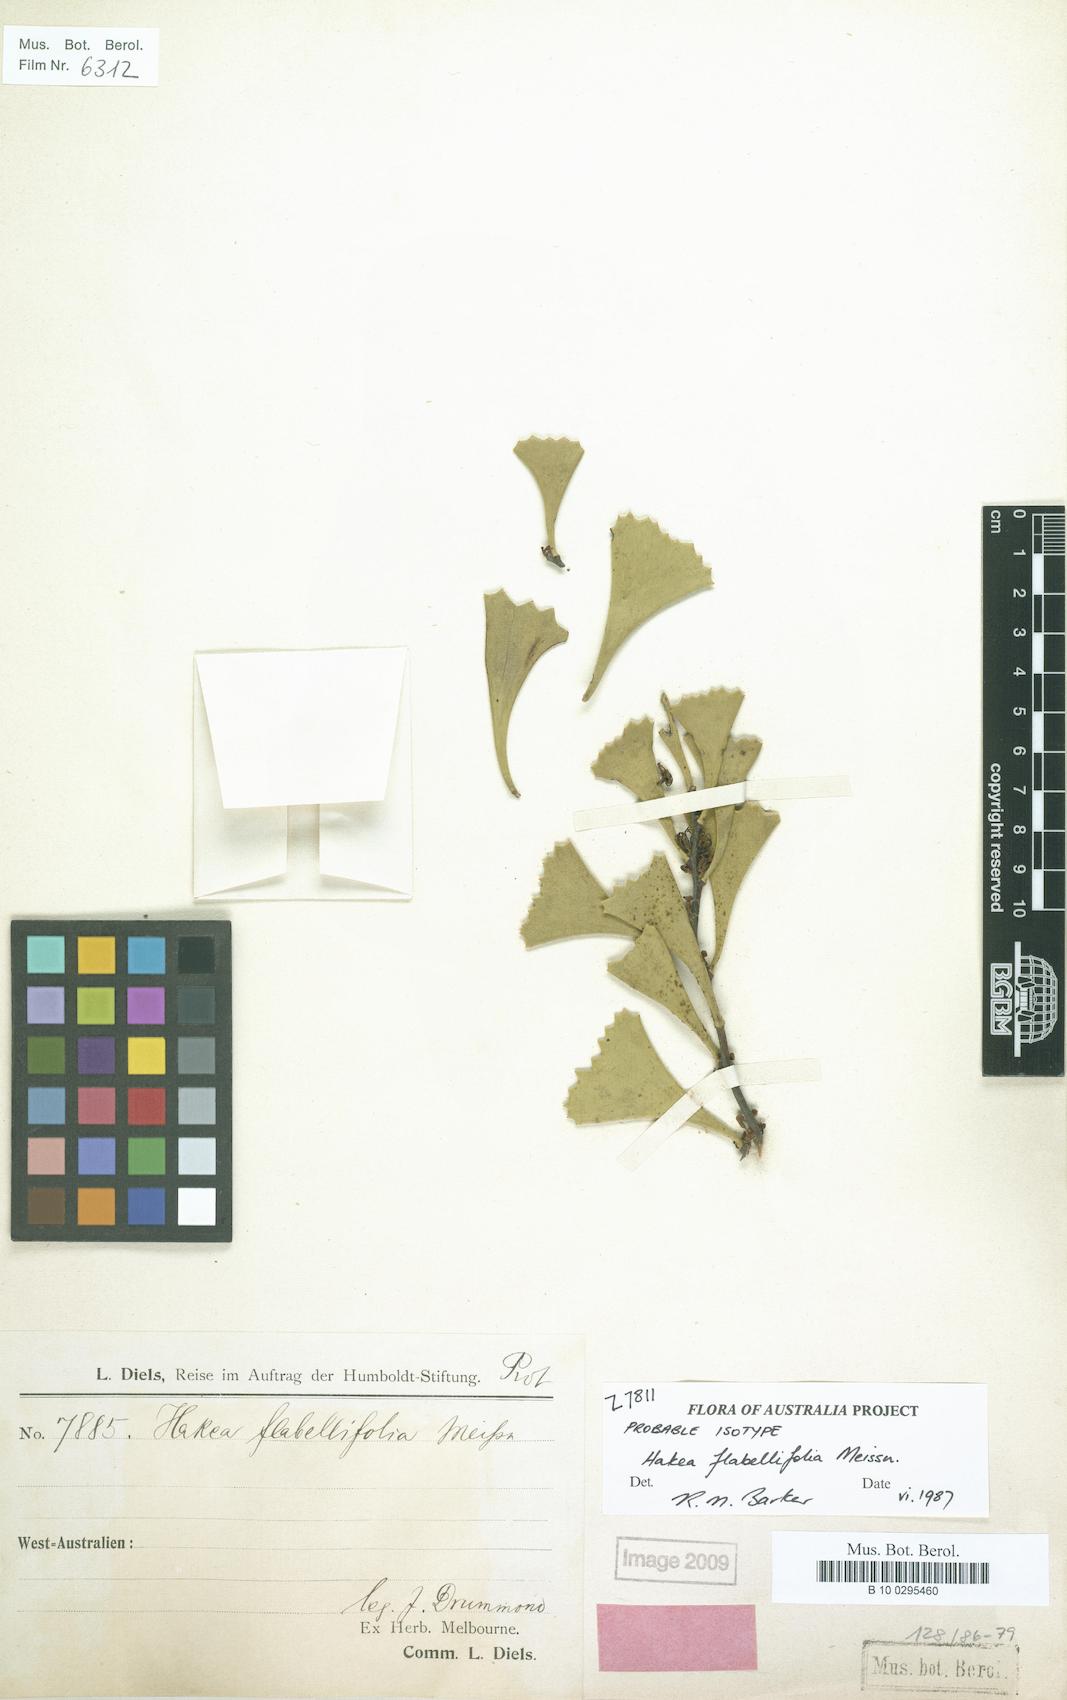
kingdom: Plantae
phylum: Tracheophyta
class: Magnoliopsida
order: Proteales
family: Proteaceae
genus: Hakea
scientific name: Hakea flabellifolia
